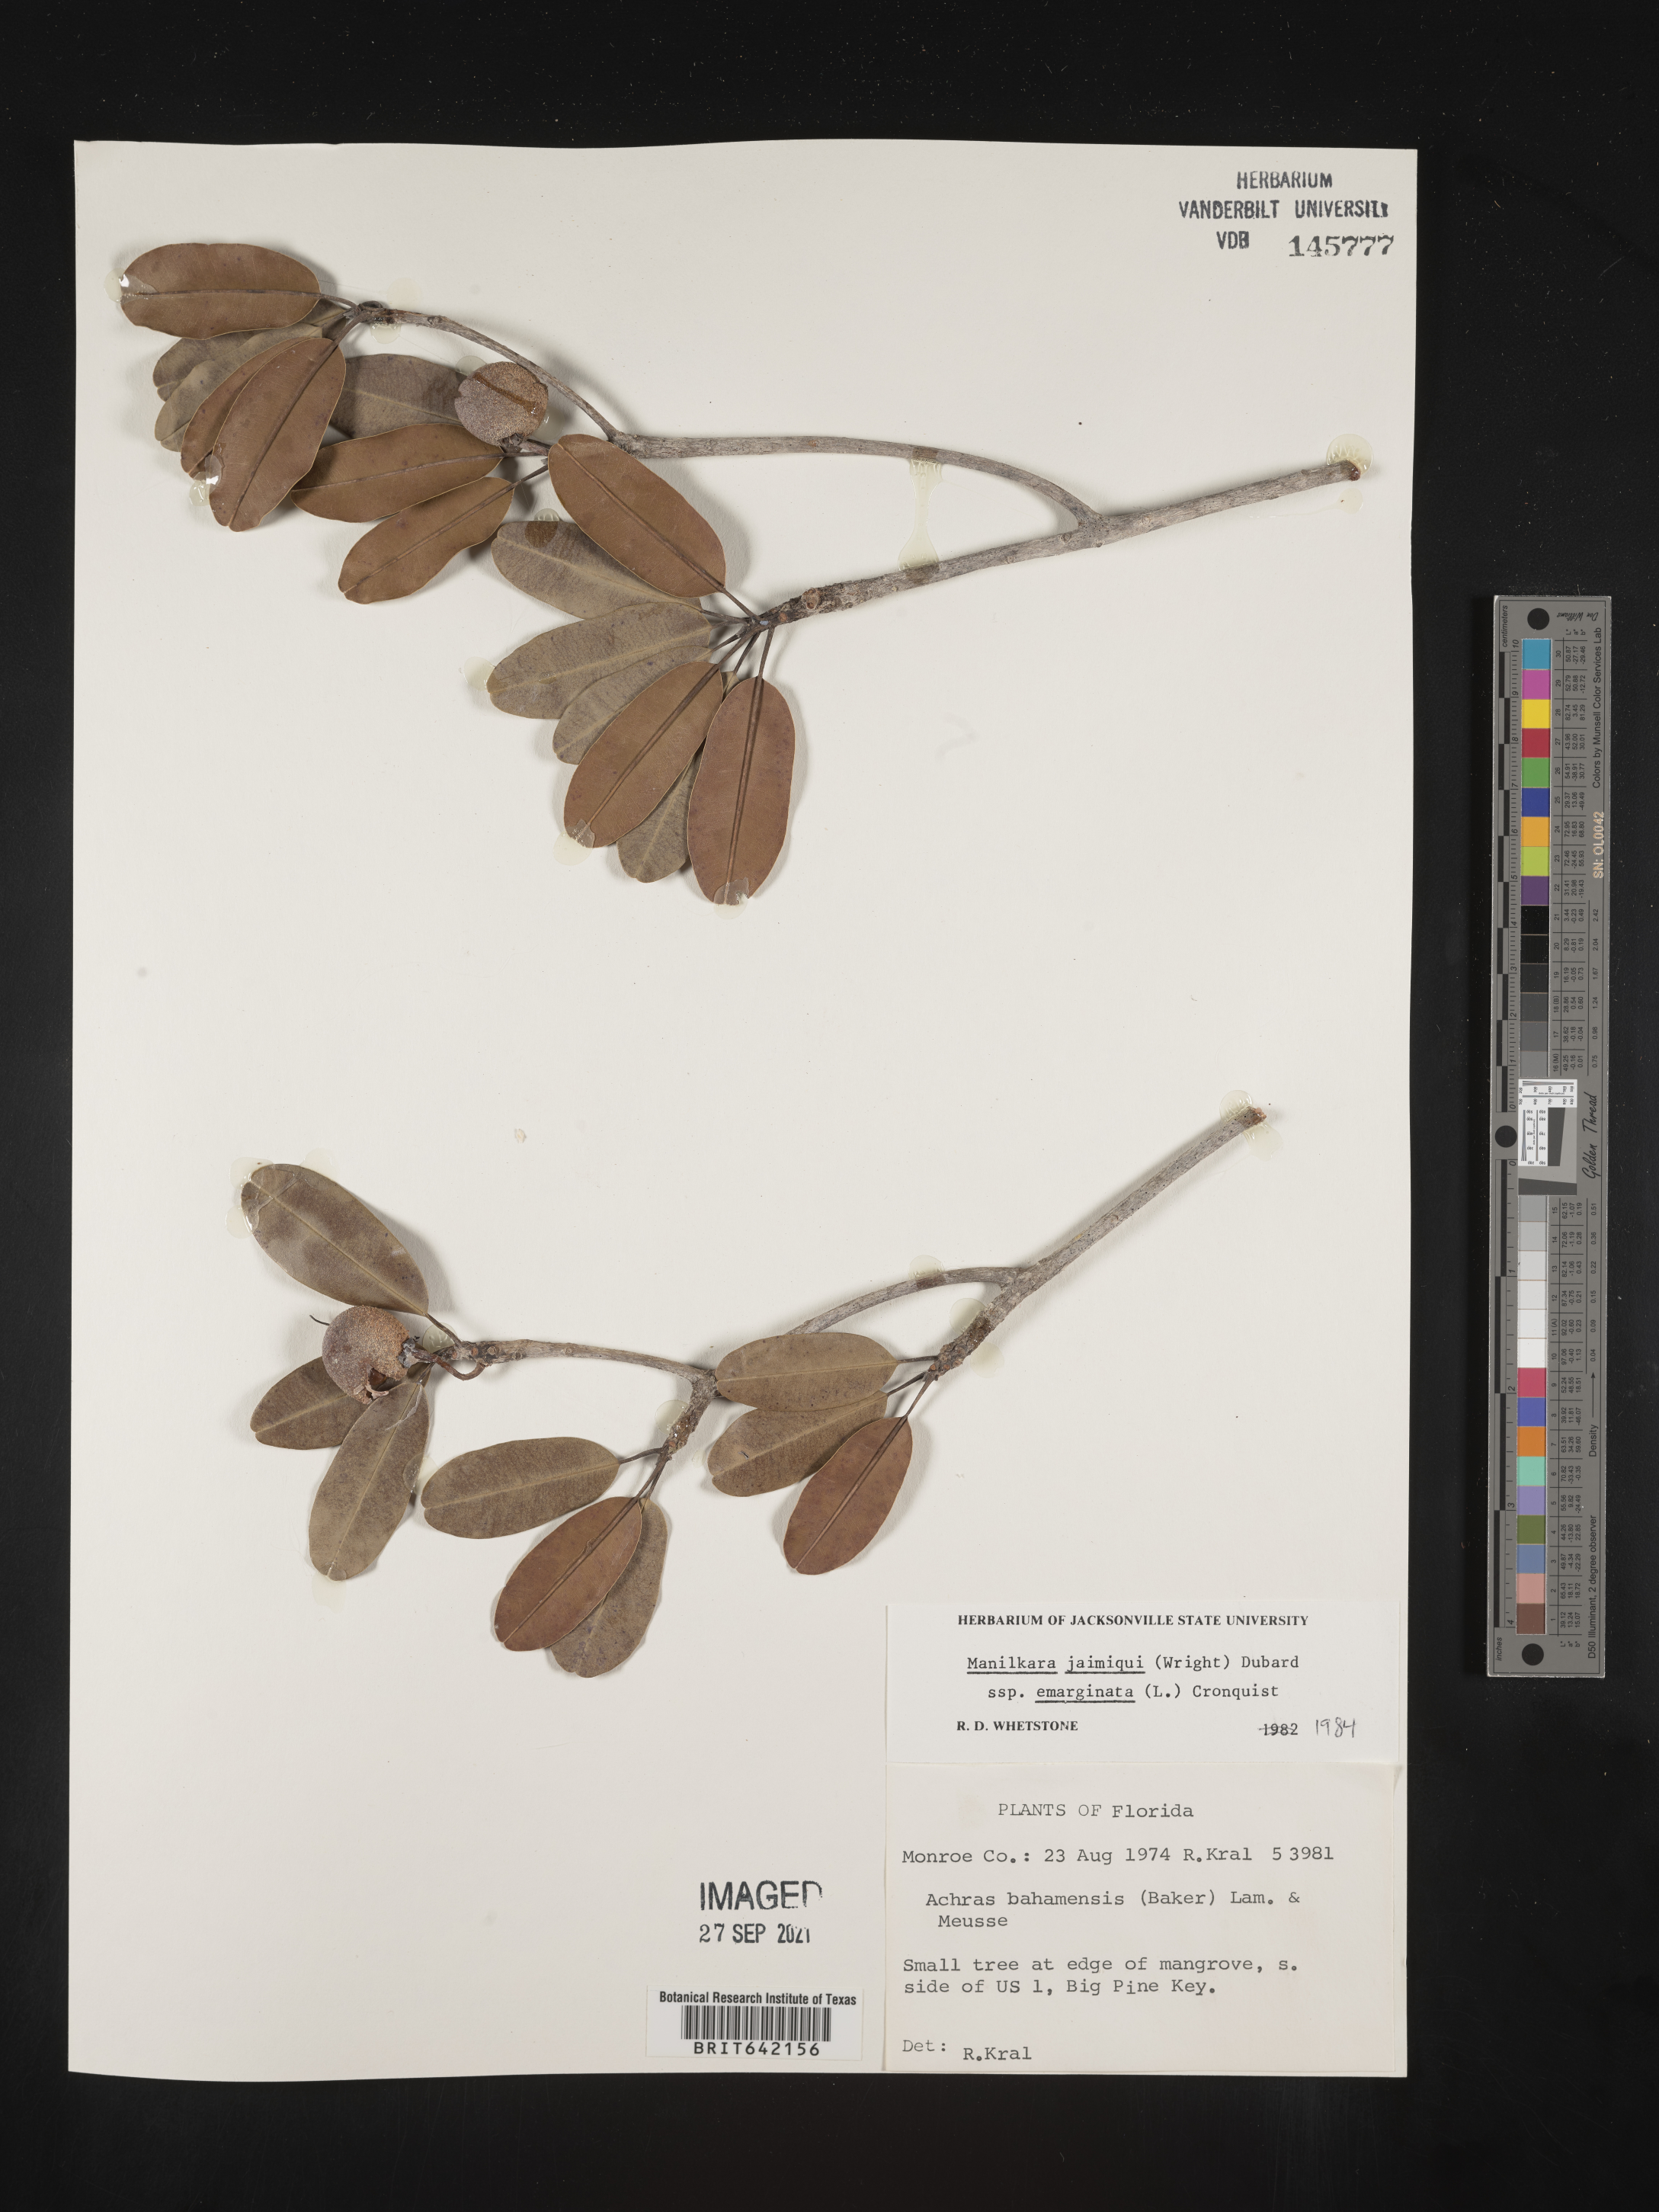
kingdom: Plantae
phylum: Tracheophyta
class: Magnoliopsida
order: Ericales
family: Sapotaceae
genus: Manilkara
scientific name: Manilkara jaimiqui
